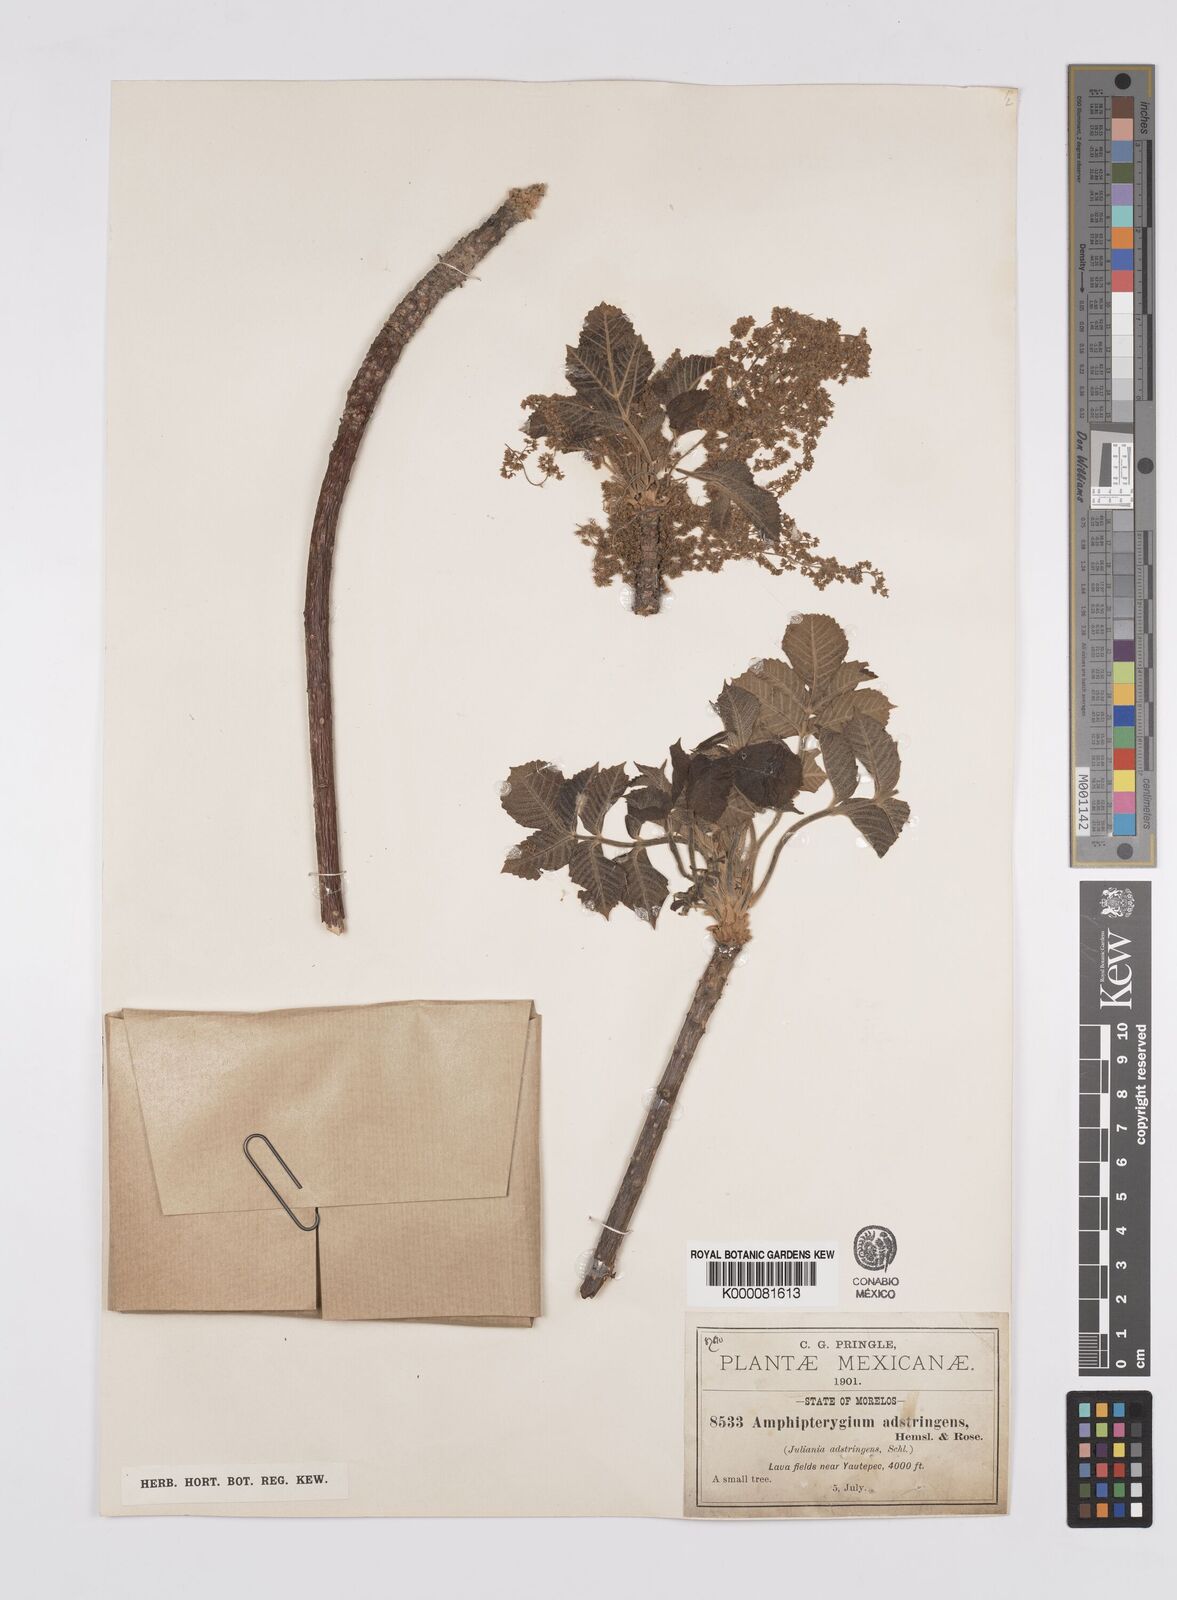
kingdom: Plantae
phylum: Tracheophyta
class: Magnoliopsida
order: Sapindales
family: Anacardiaceae
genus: Amphipterygium
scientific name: Amphipterygium adstringens
